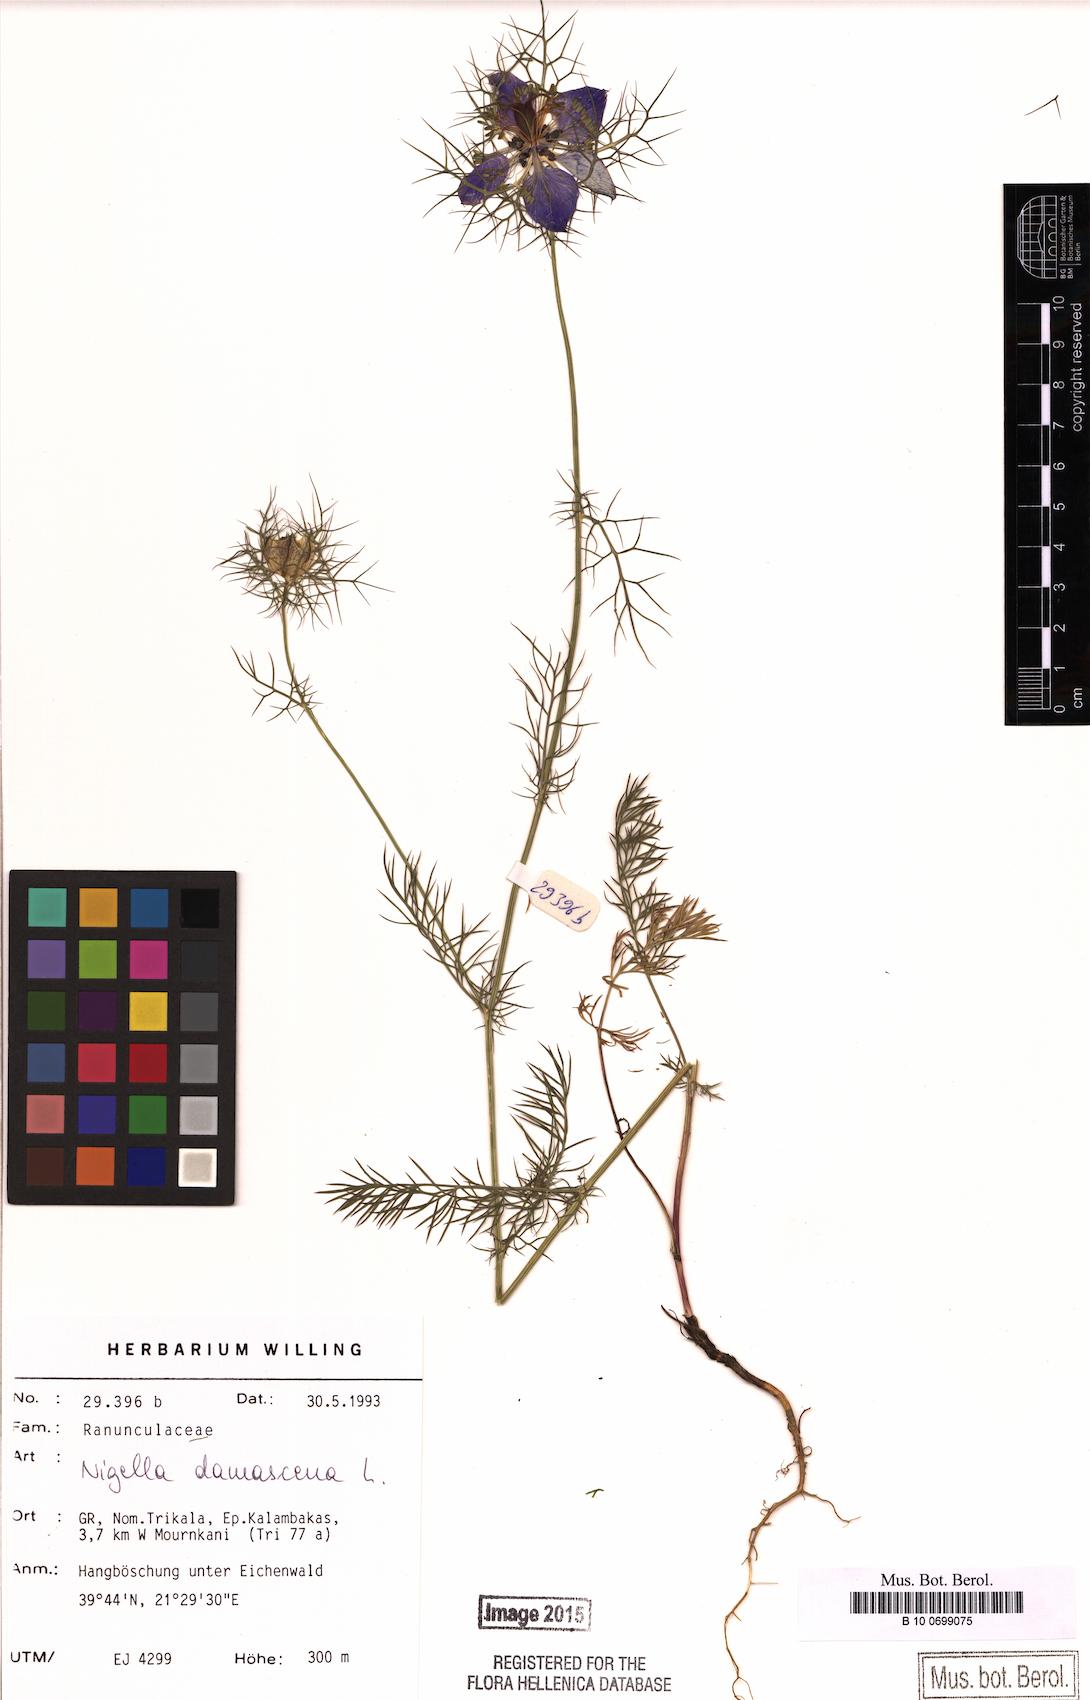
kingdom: Plantae
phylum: Tracheophyta
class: Magnoliopsida
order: Ranunculales
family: Ranunculaceae
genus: Nigella
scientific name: Nigella damascena
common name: Love-in-a-mist
